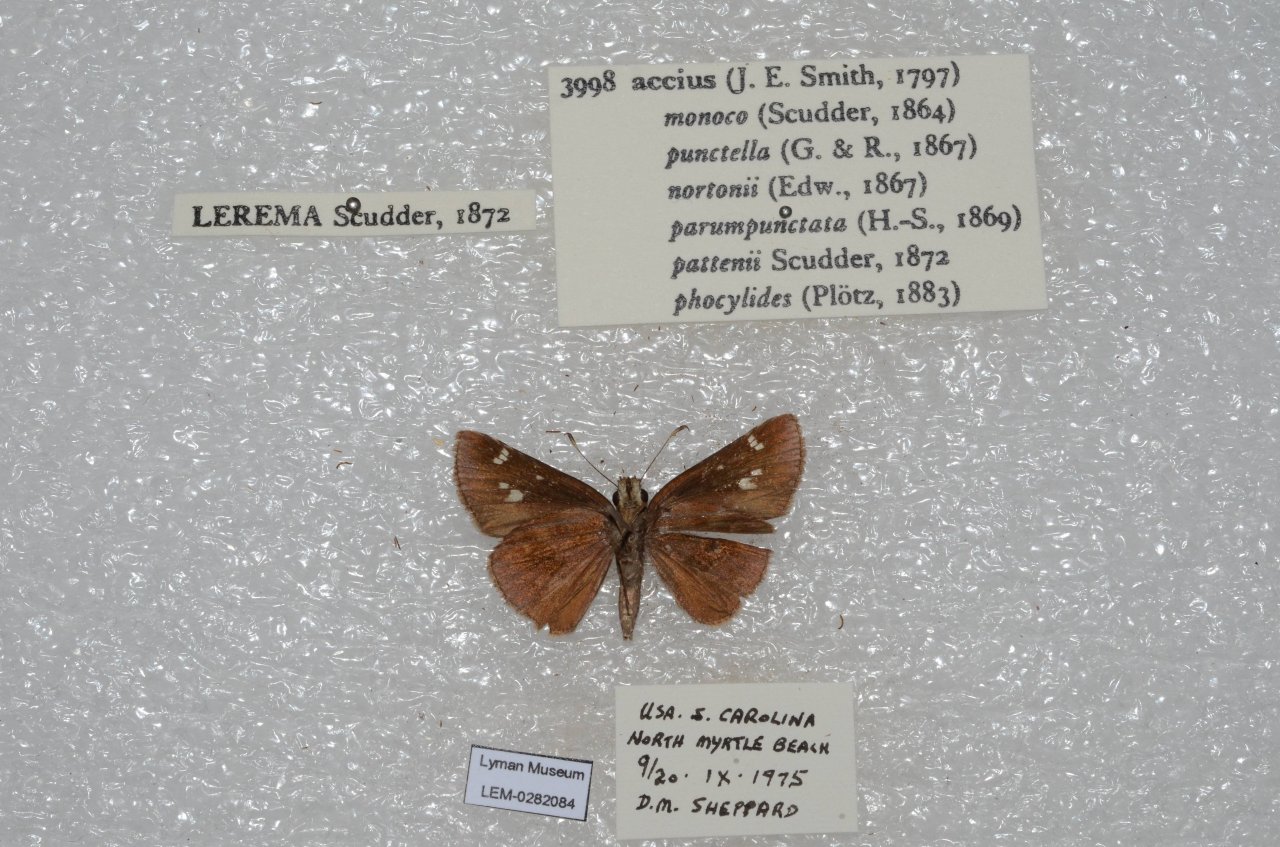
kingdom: Animalia
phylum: Arthropoda
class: Insecta
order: Lepidoptera
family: Hesperiidae
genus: Lerema
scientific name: Lerema accius
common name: Clouded Skipper
